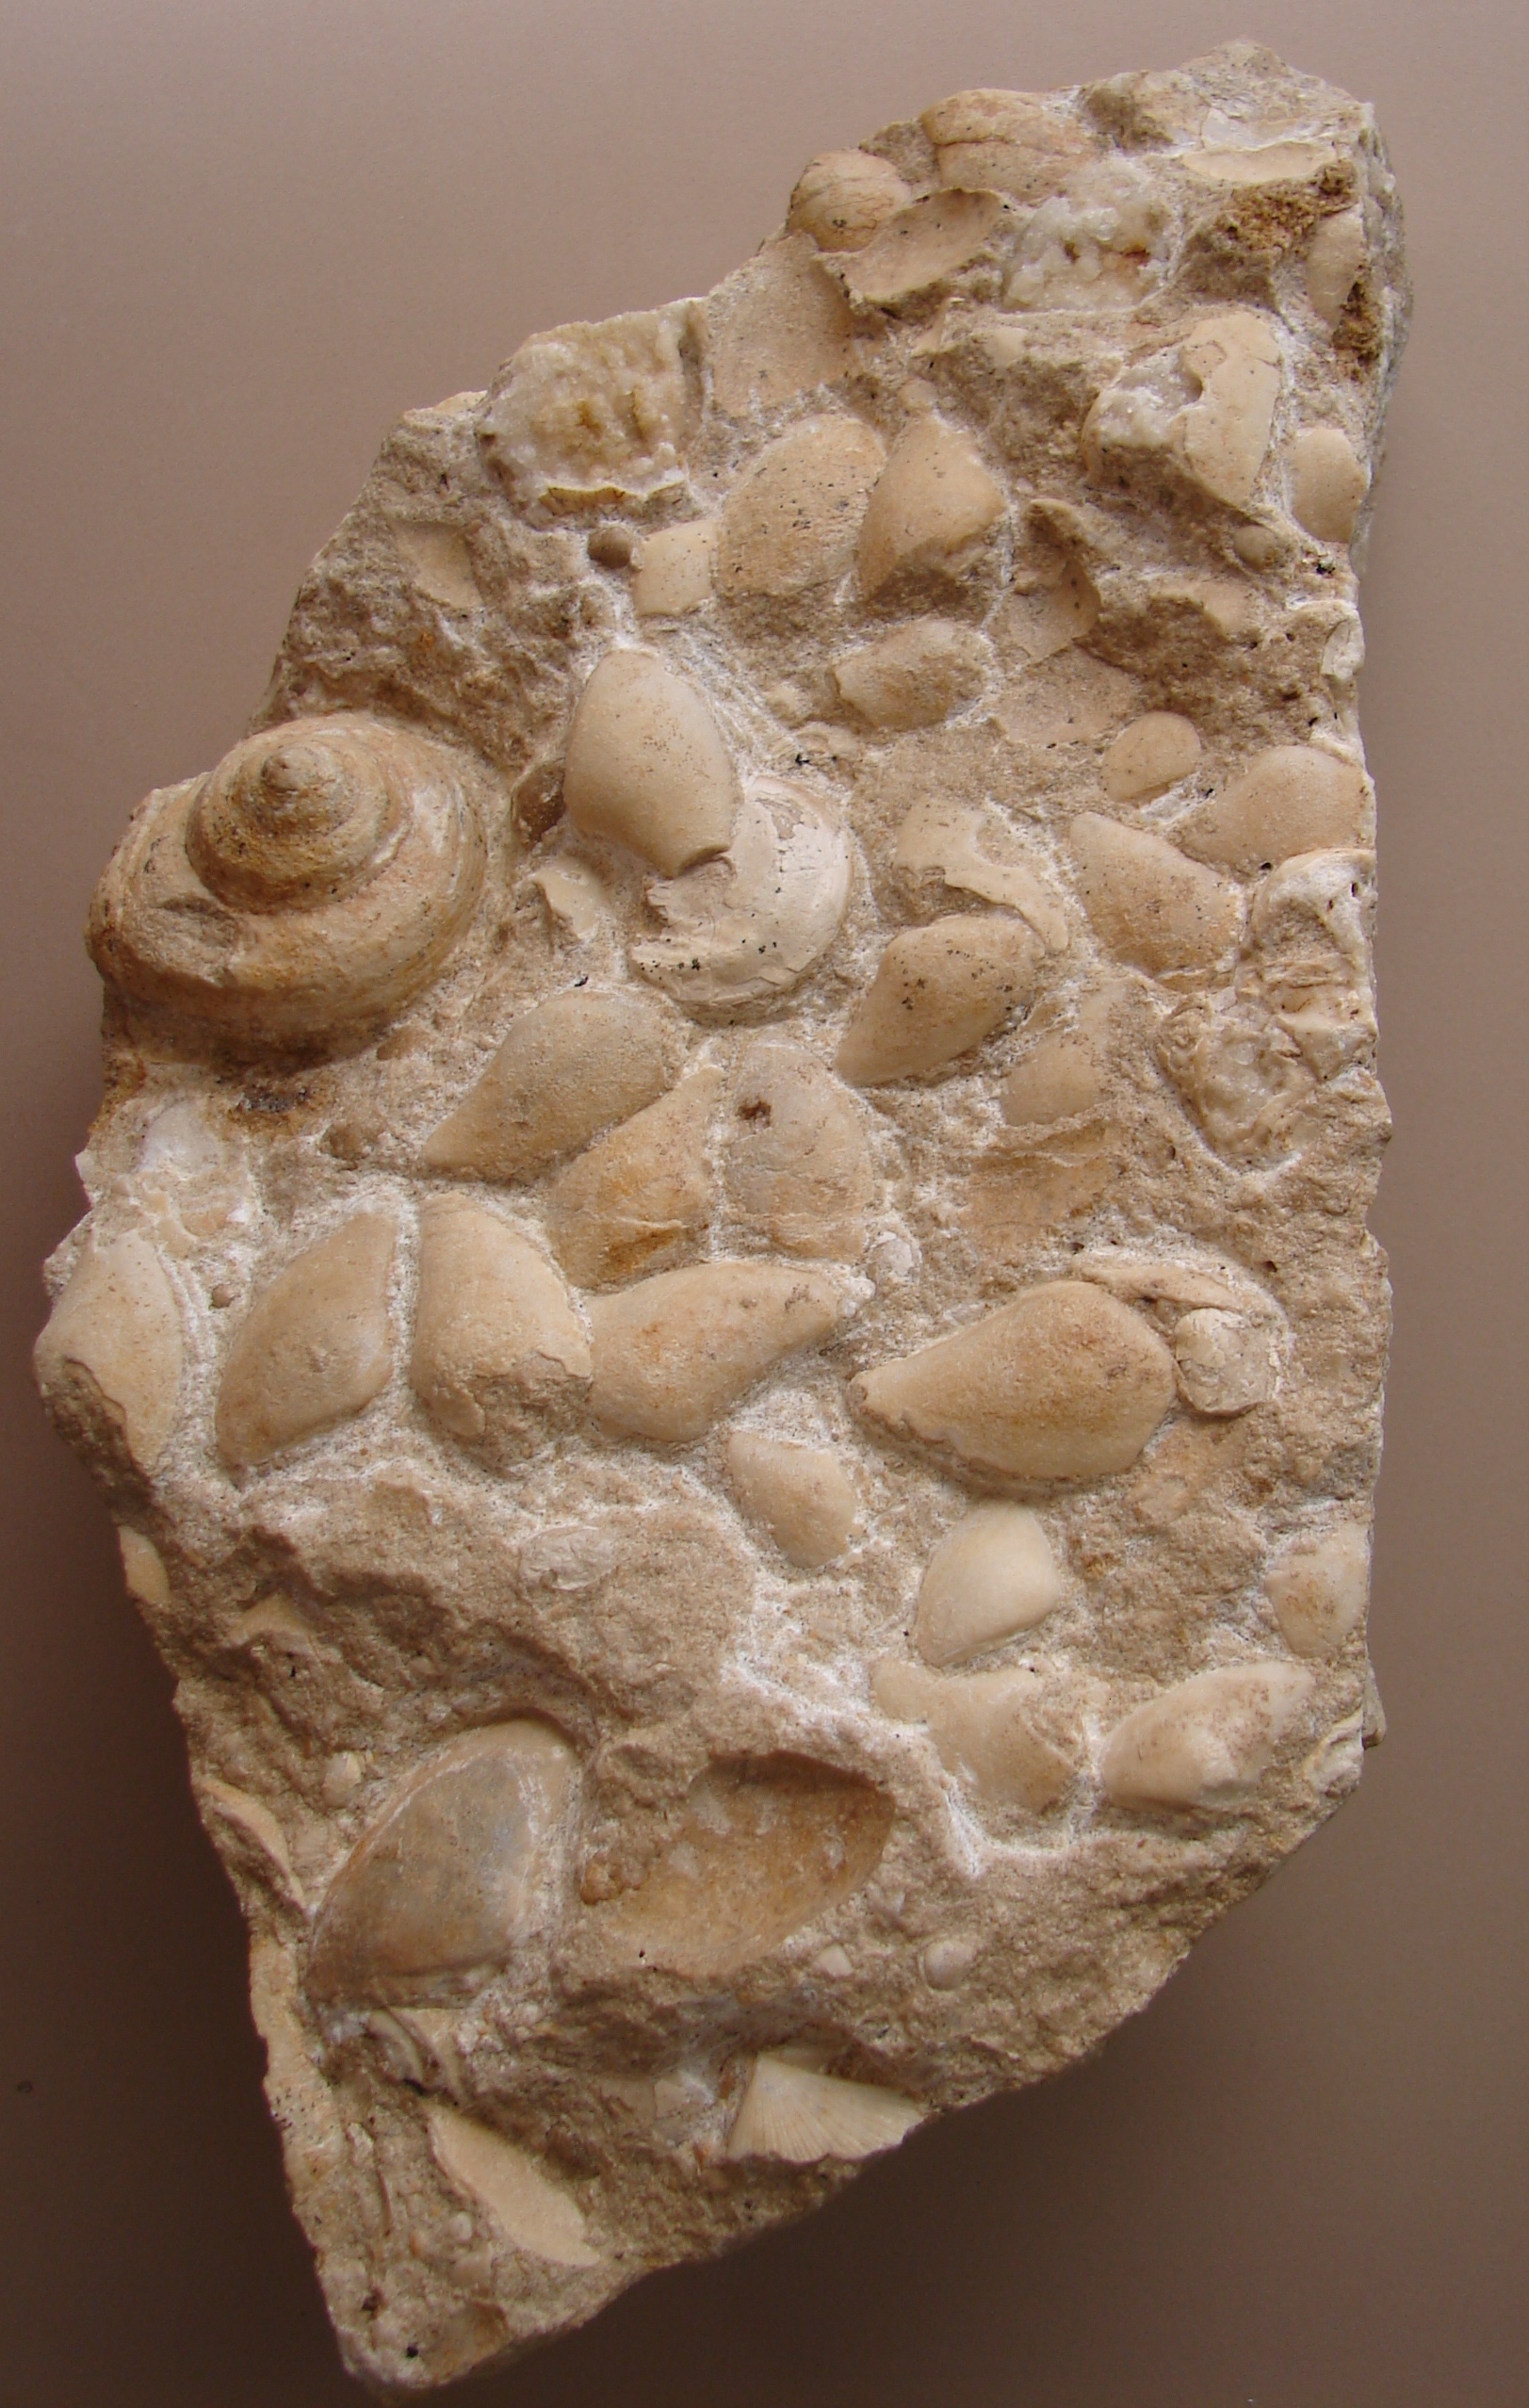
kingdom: Animalia
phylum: Mollusca
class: Gastropoda
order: Pleurotomariida
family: Trochotomidae
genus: Trochotoma
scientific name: Trochotoma vetusta
